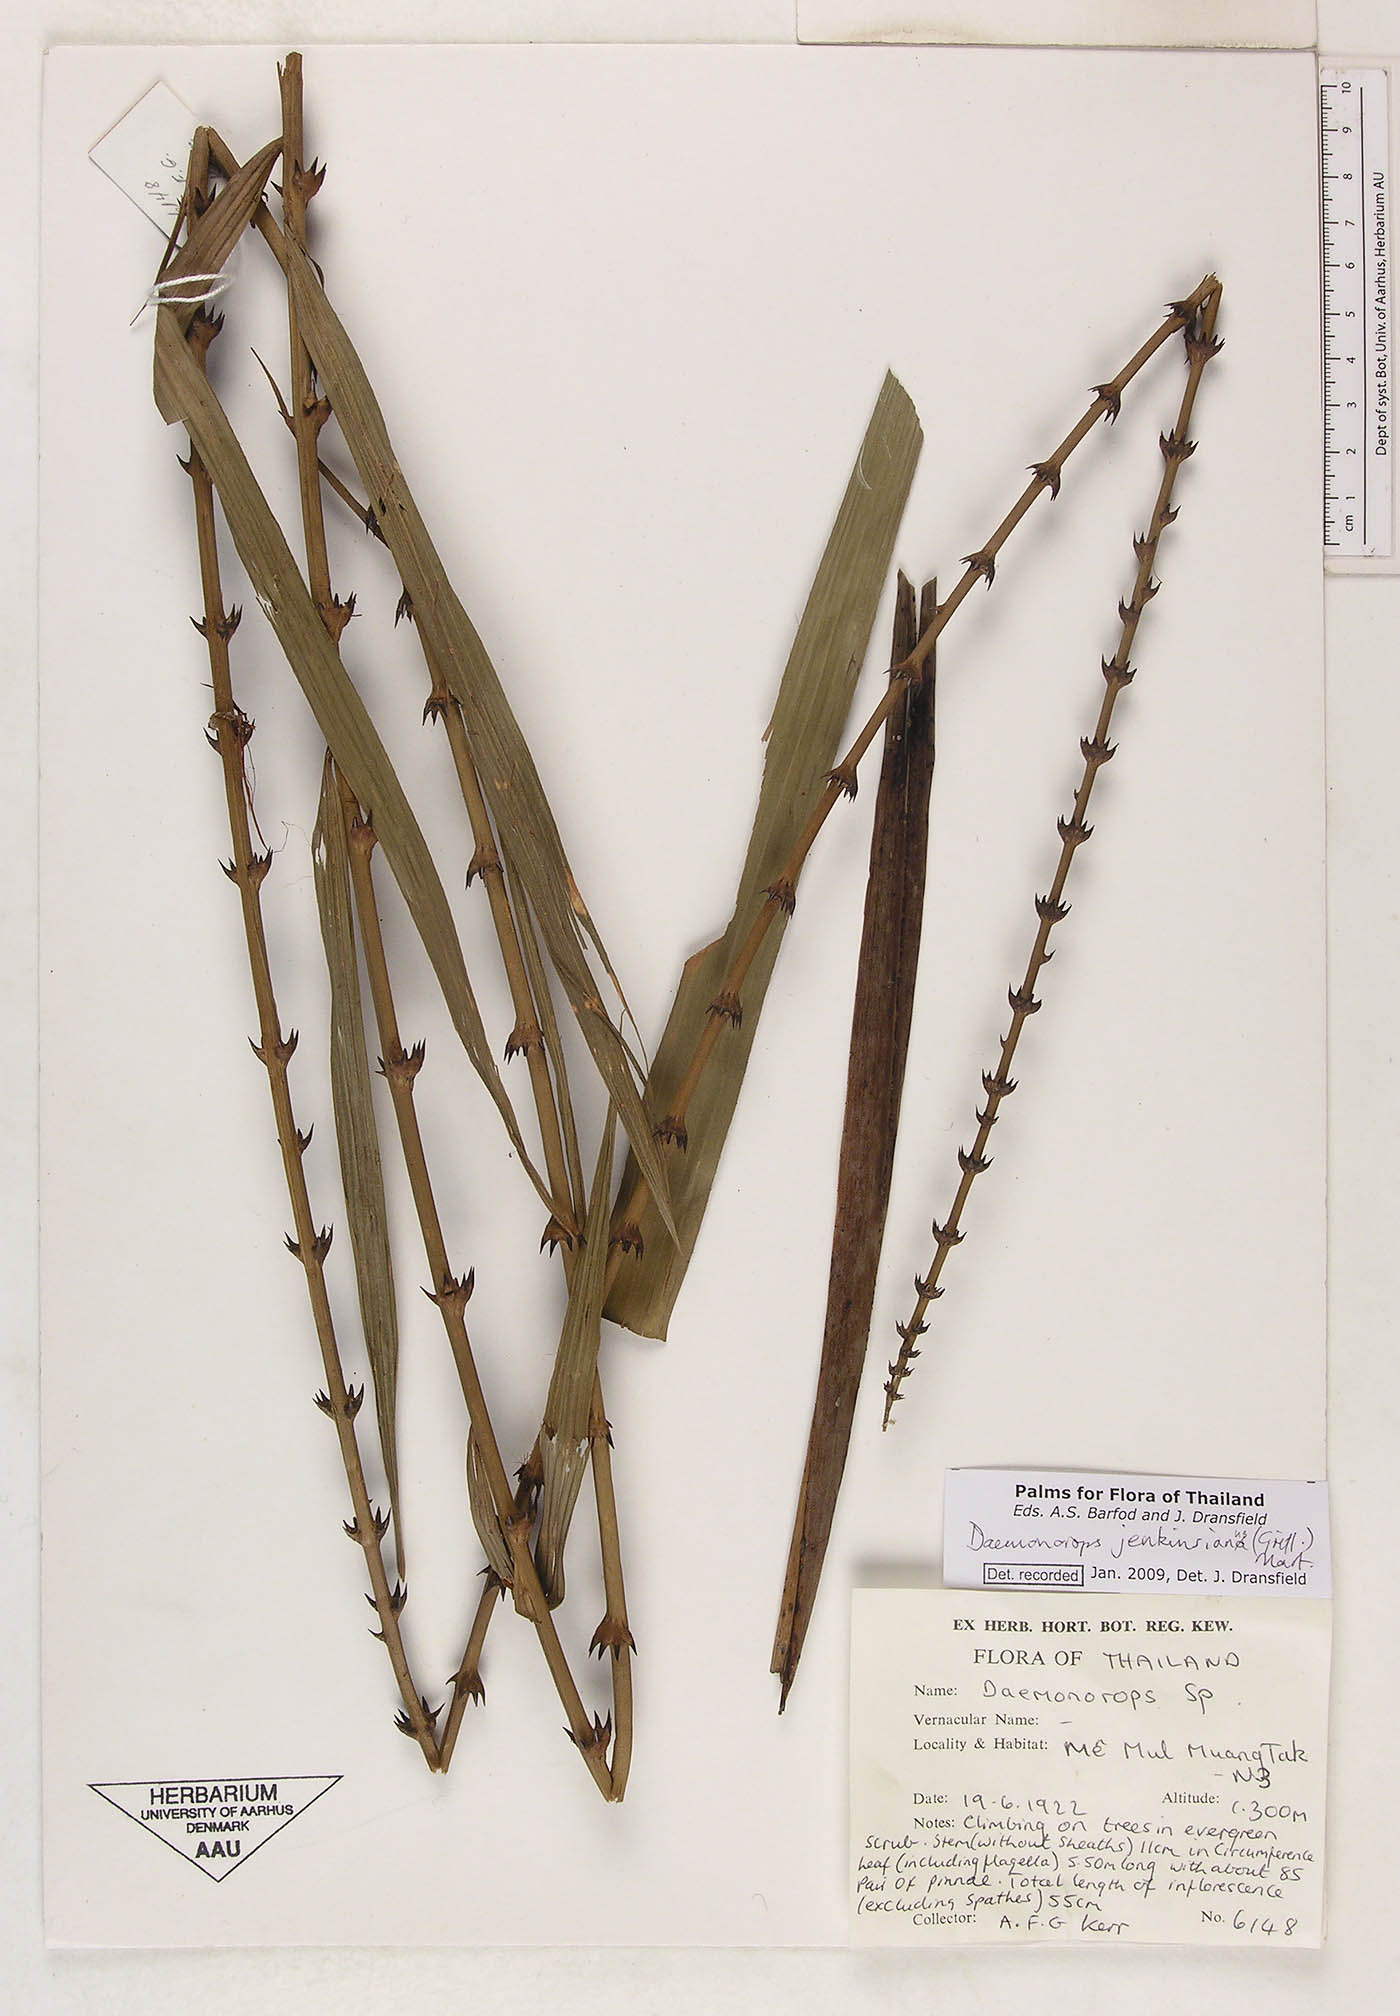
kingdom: Plantae
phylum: Tracheophyta
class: Liliopsida
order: Arecales
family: Arecaceae
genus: Calamus
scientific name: Calamus melanochaetes
